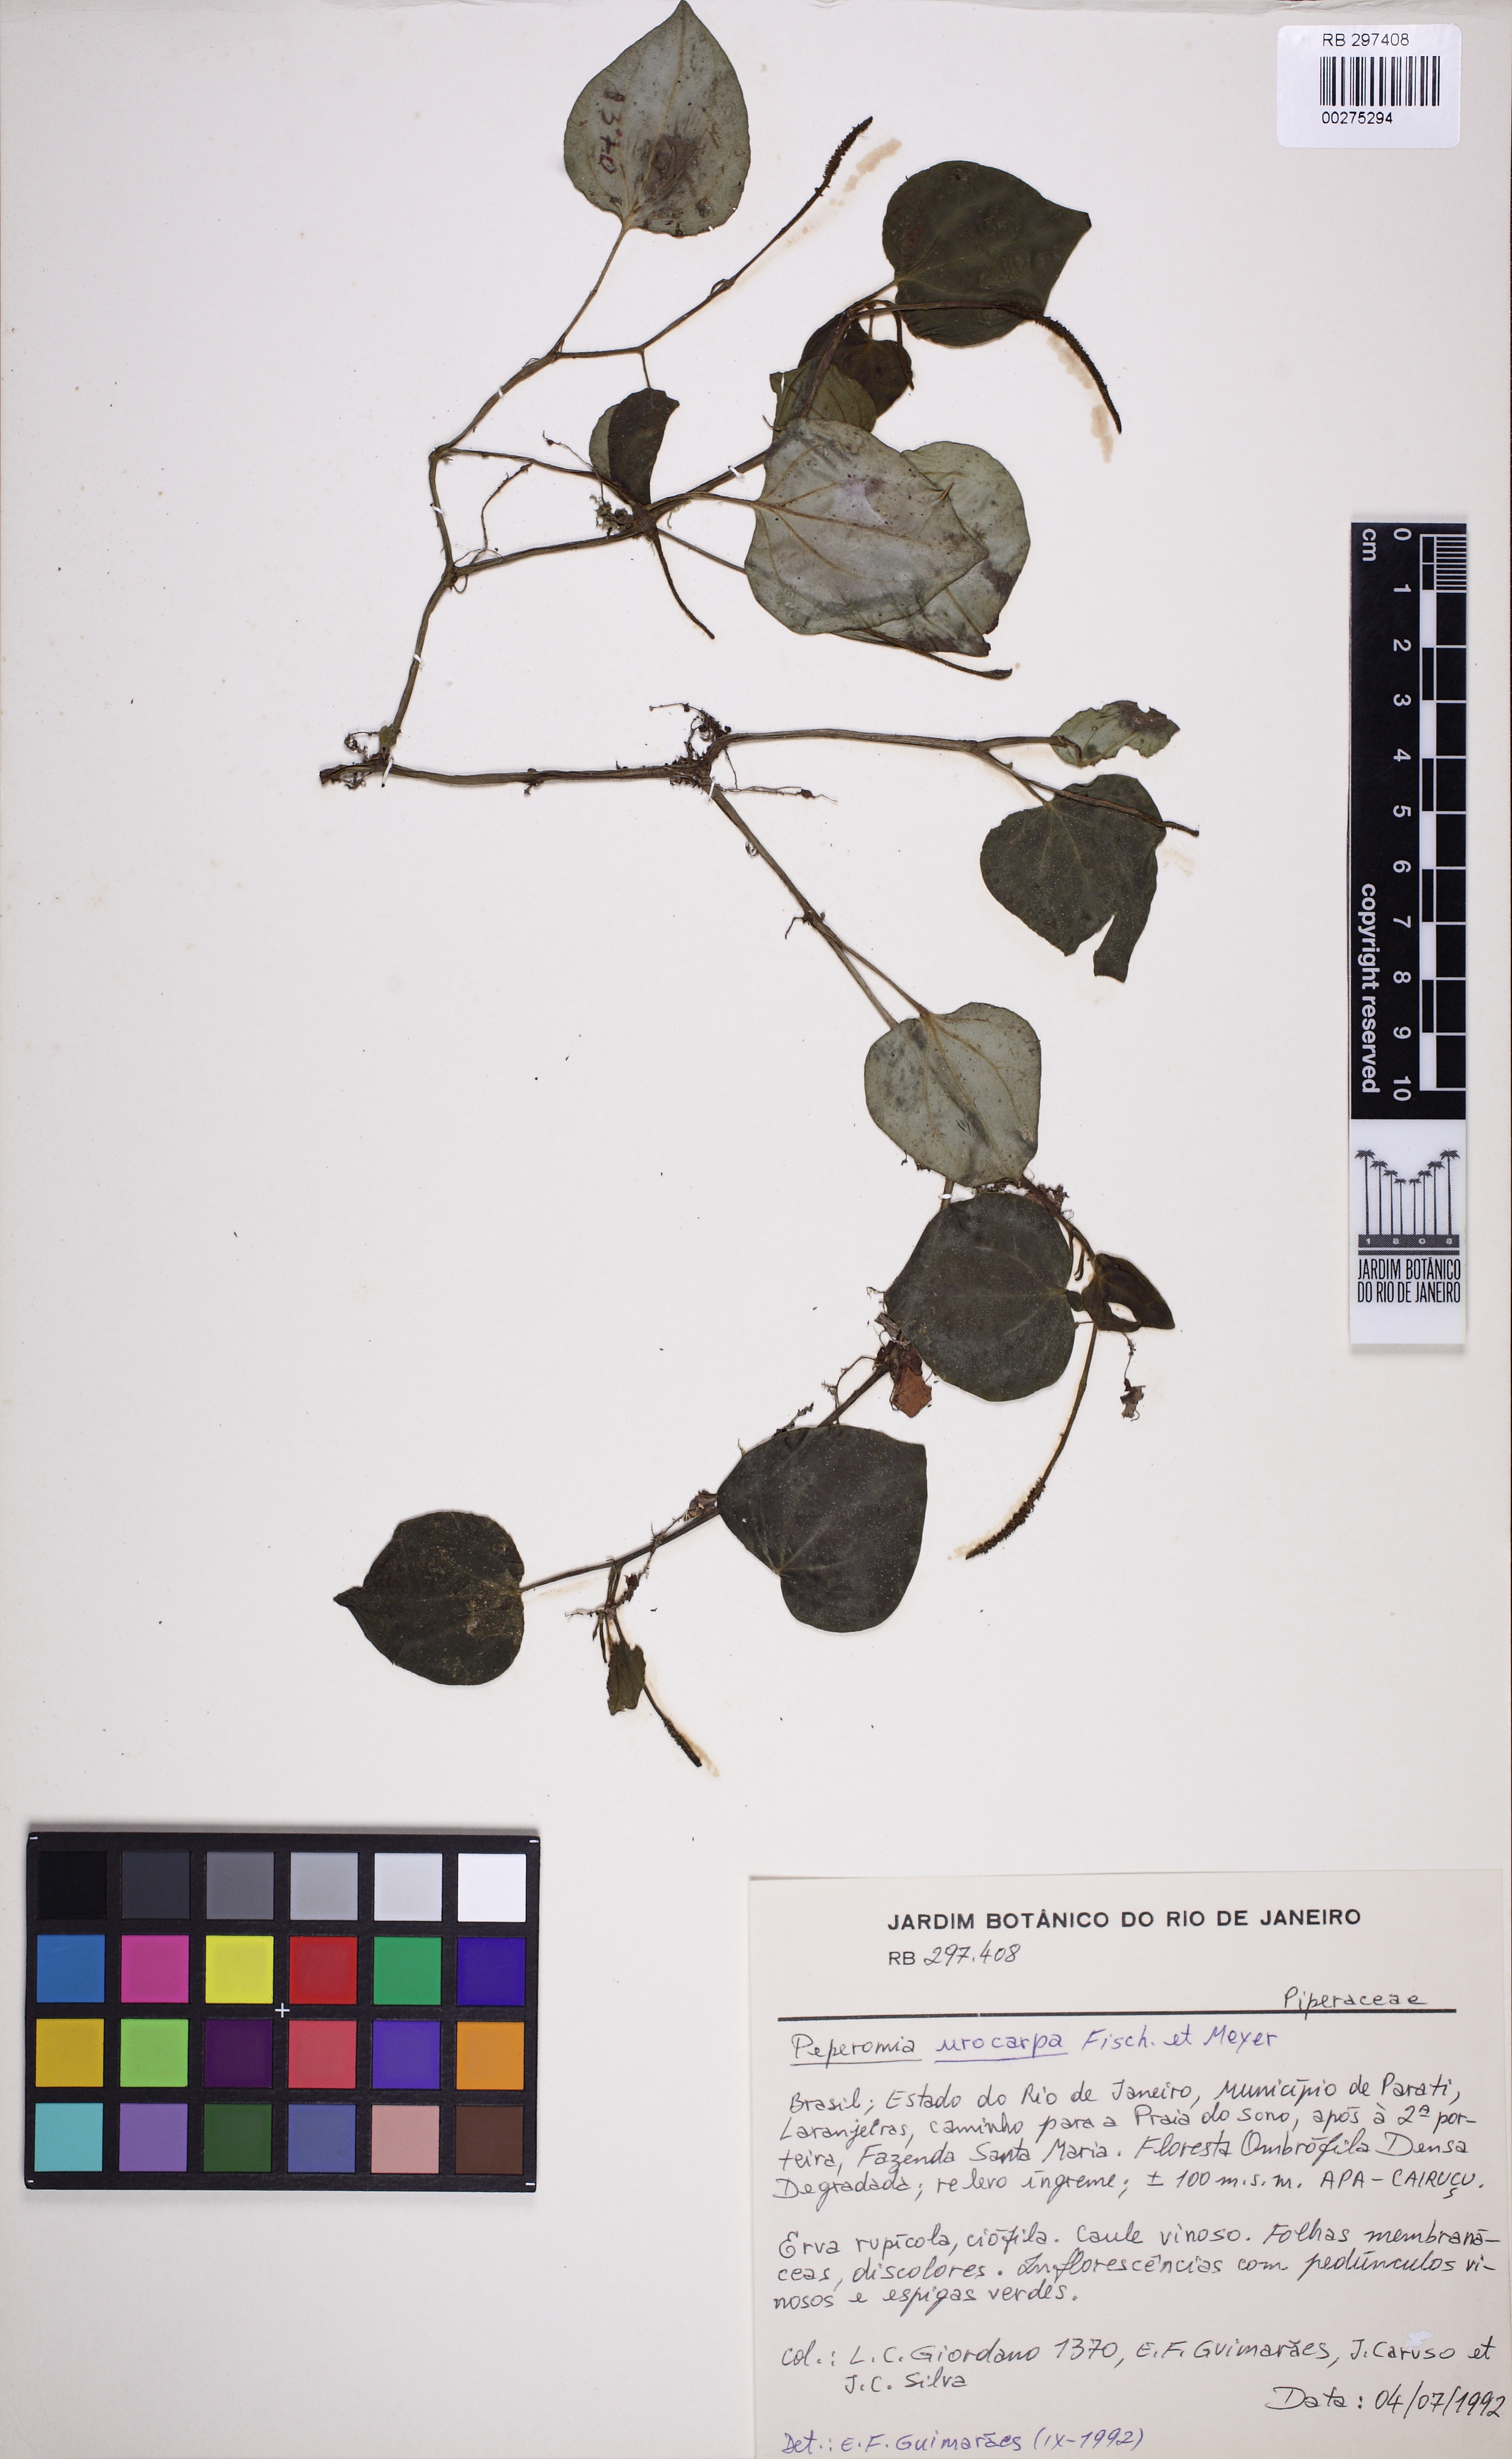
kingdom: Plantae
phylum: Tracheophyta
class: Magnoliopsida
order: Piperales
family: Piperaceae
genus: Peperomia
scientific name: Peperomia urocarpa
